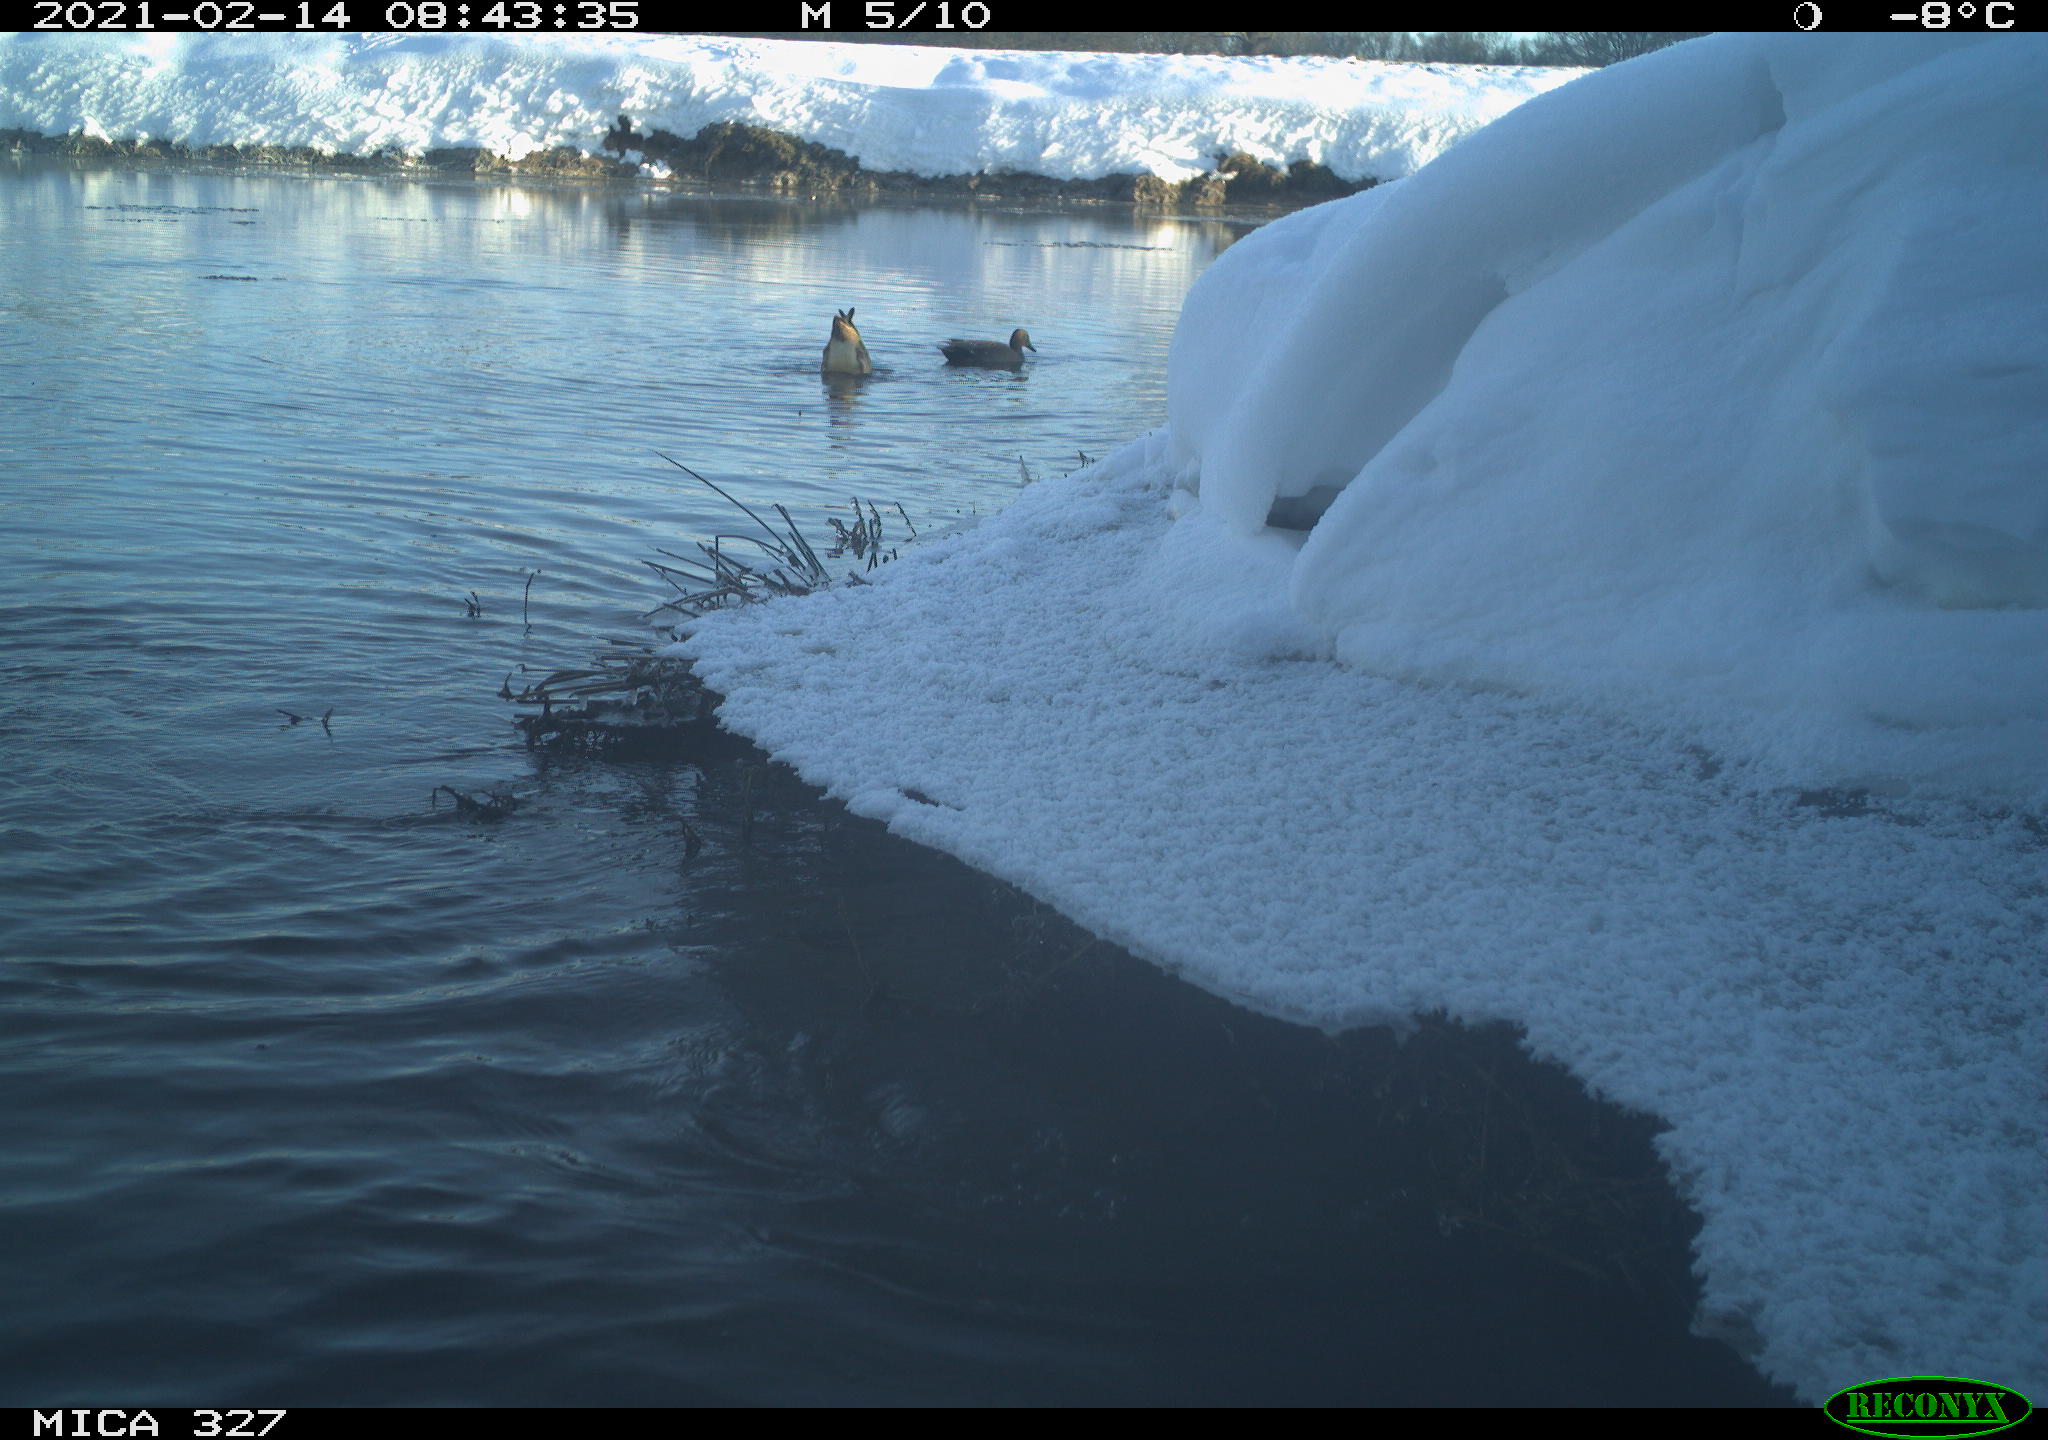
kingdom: Animalia
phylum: Chordata
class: Aves
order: Anseriformes
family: Anatidae
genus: Anas
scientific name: Anas
